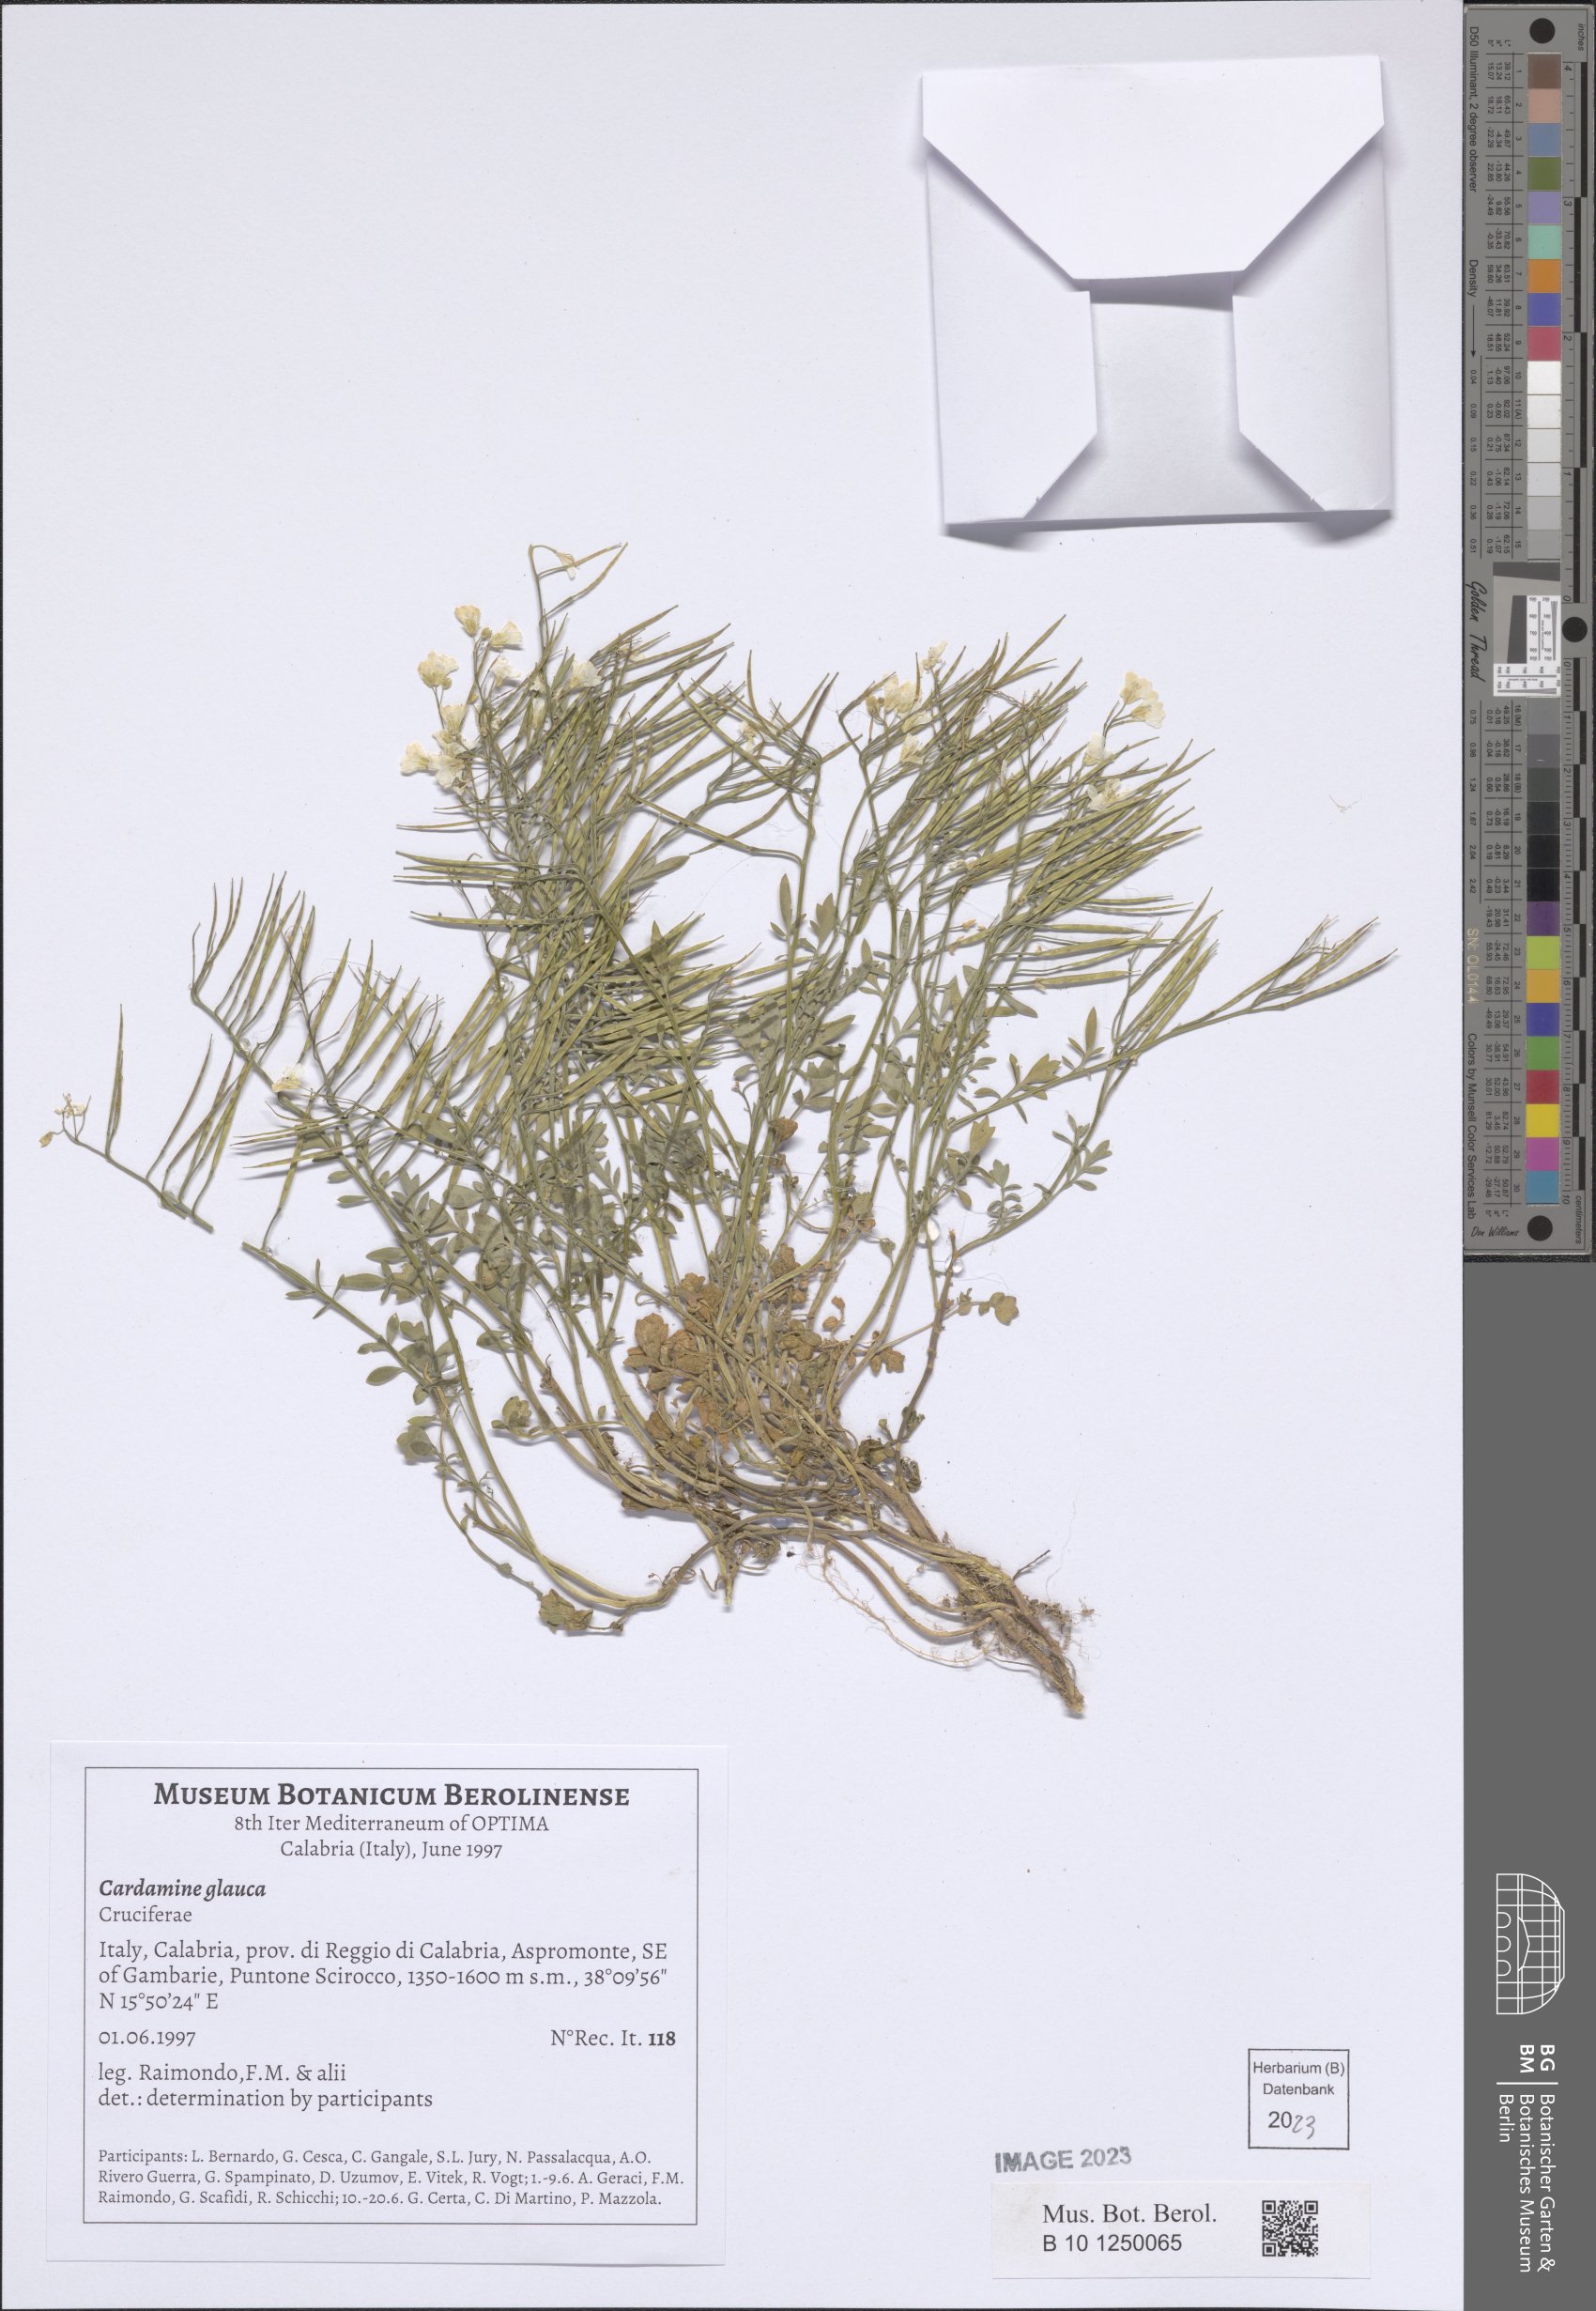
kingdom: Plantae
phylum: Tracheophyta
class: Magnoliopsida
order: Brassicales
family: Brassicaceae
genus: Cardamine
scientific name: Cardamine glauca
